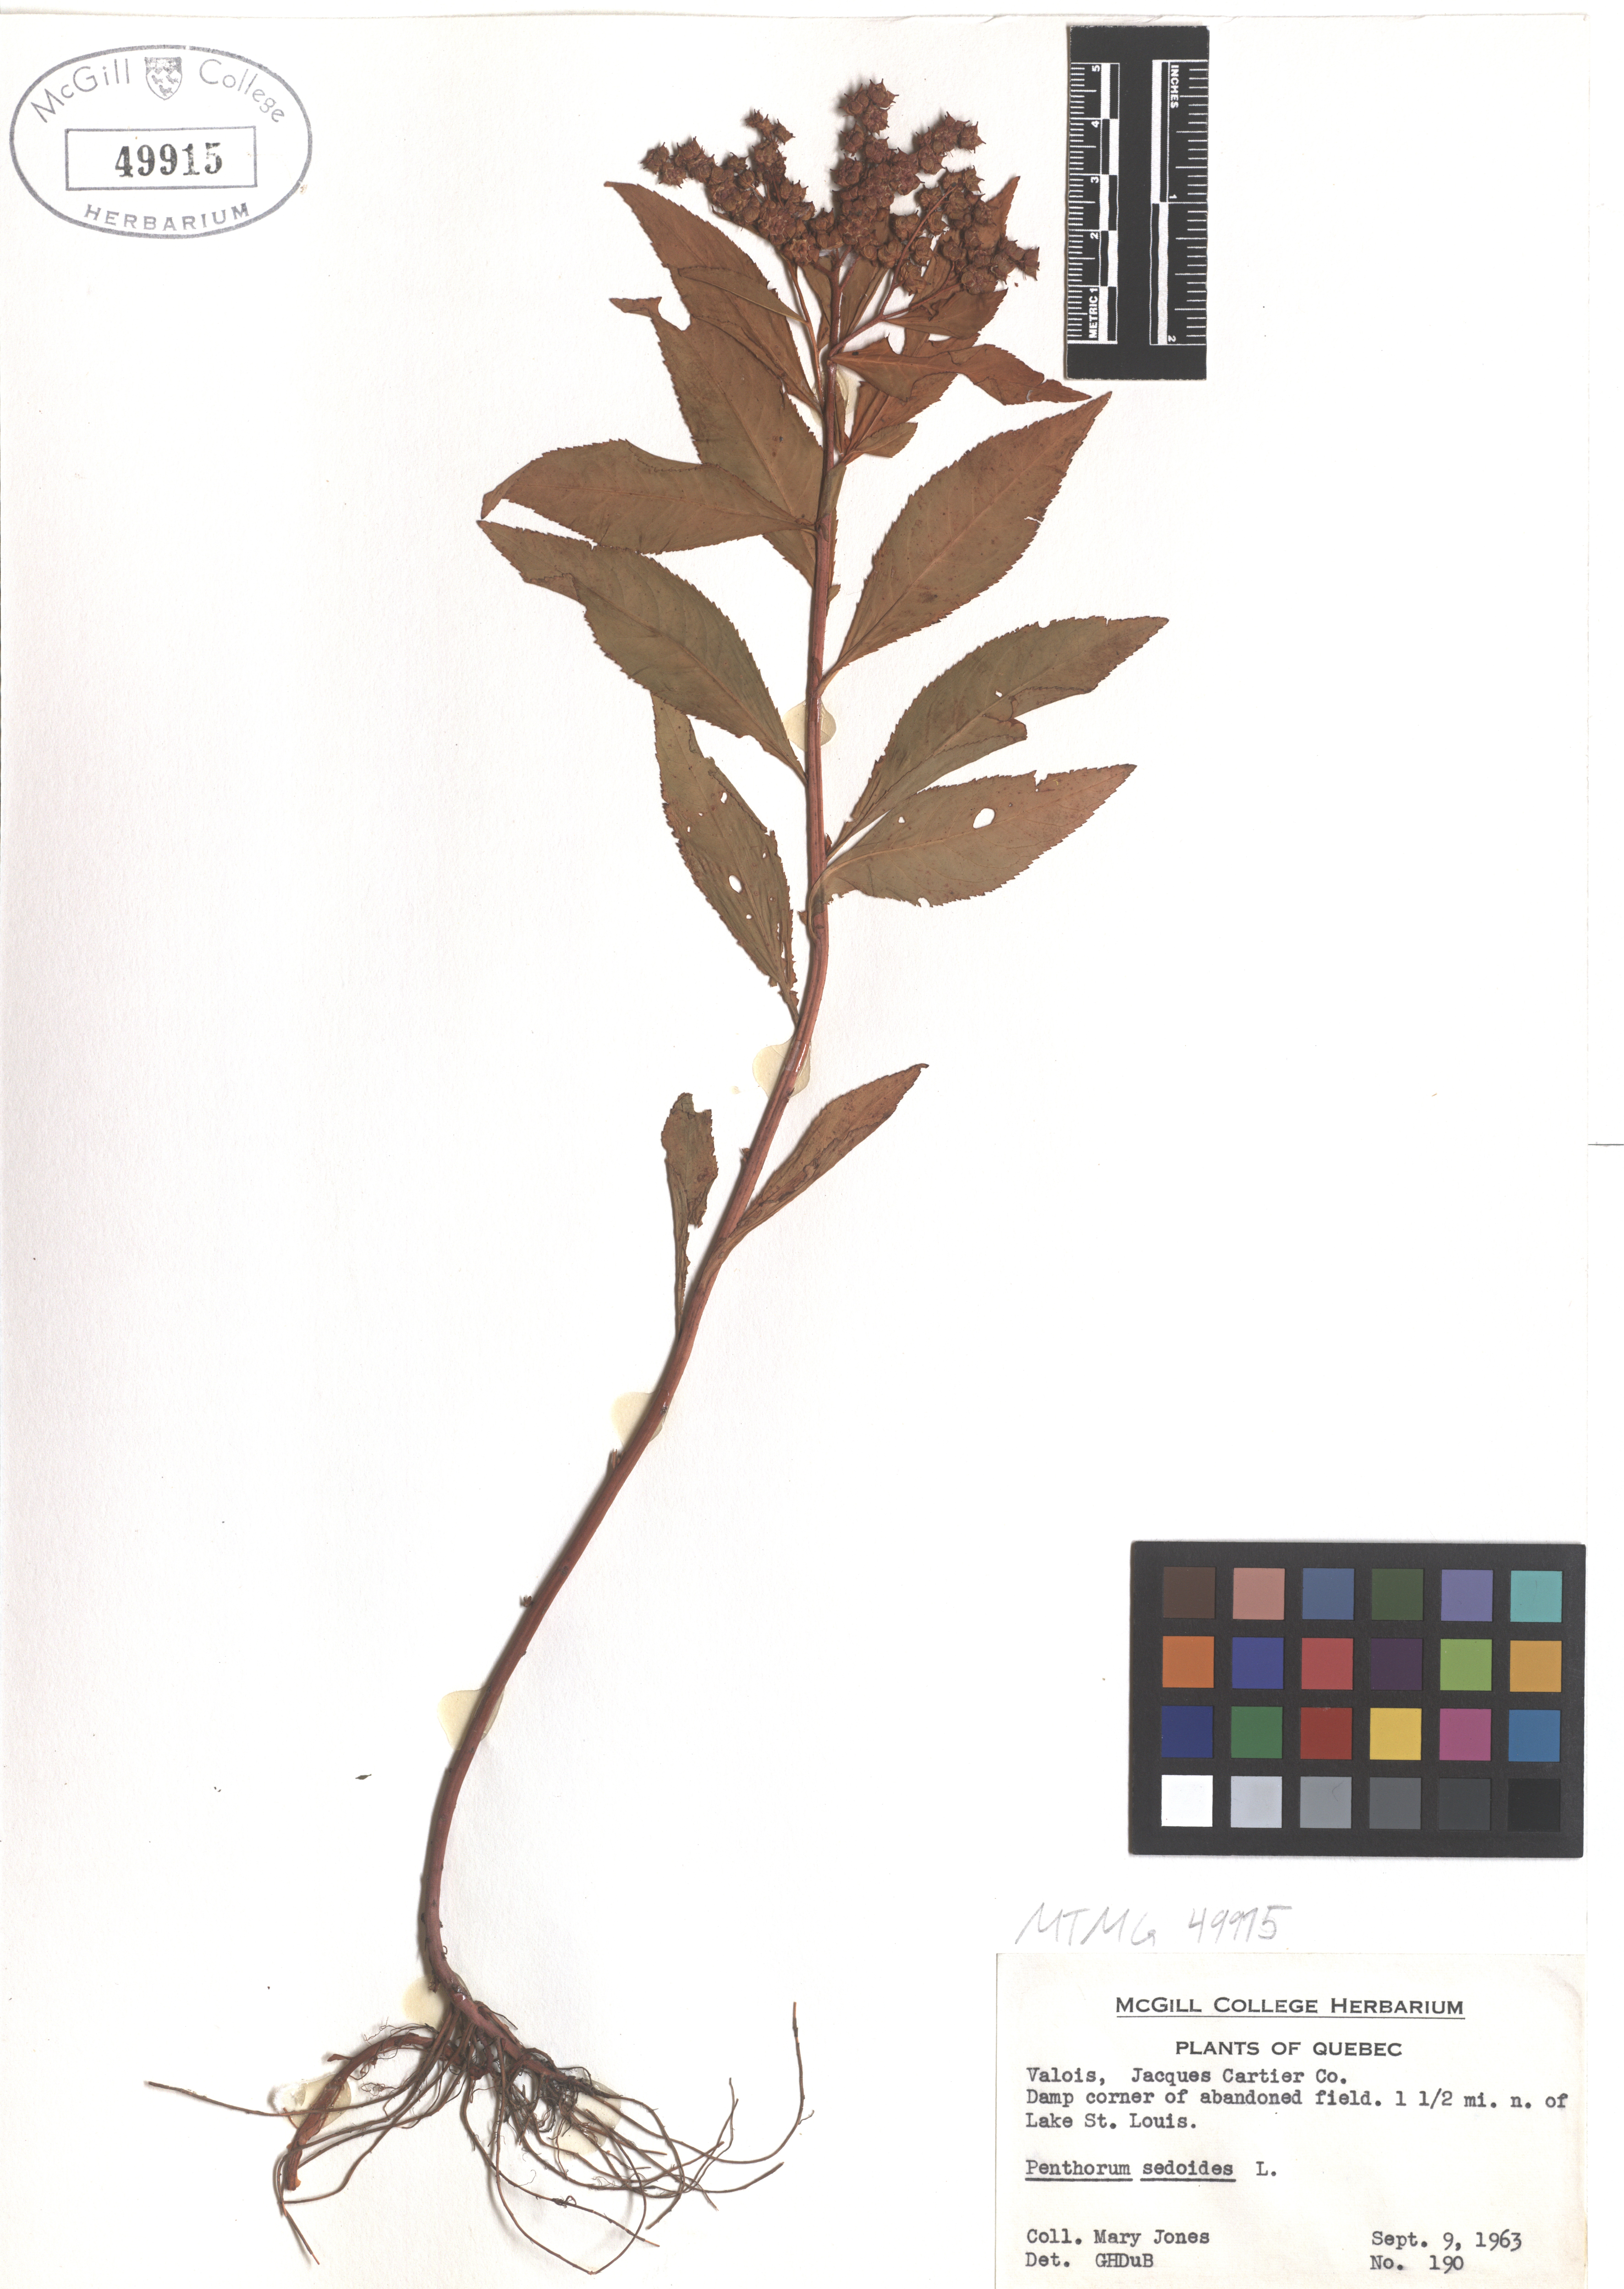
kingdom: Plantae
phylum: Tracheophyta
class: Magnoliopsida
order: Saxifragales
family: Penthoraceae
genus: Penthorum
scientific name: Penthorum sedoides
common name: Ditch stonecrop
